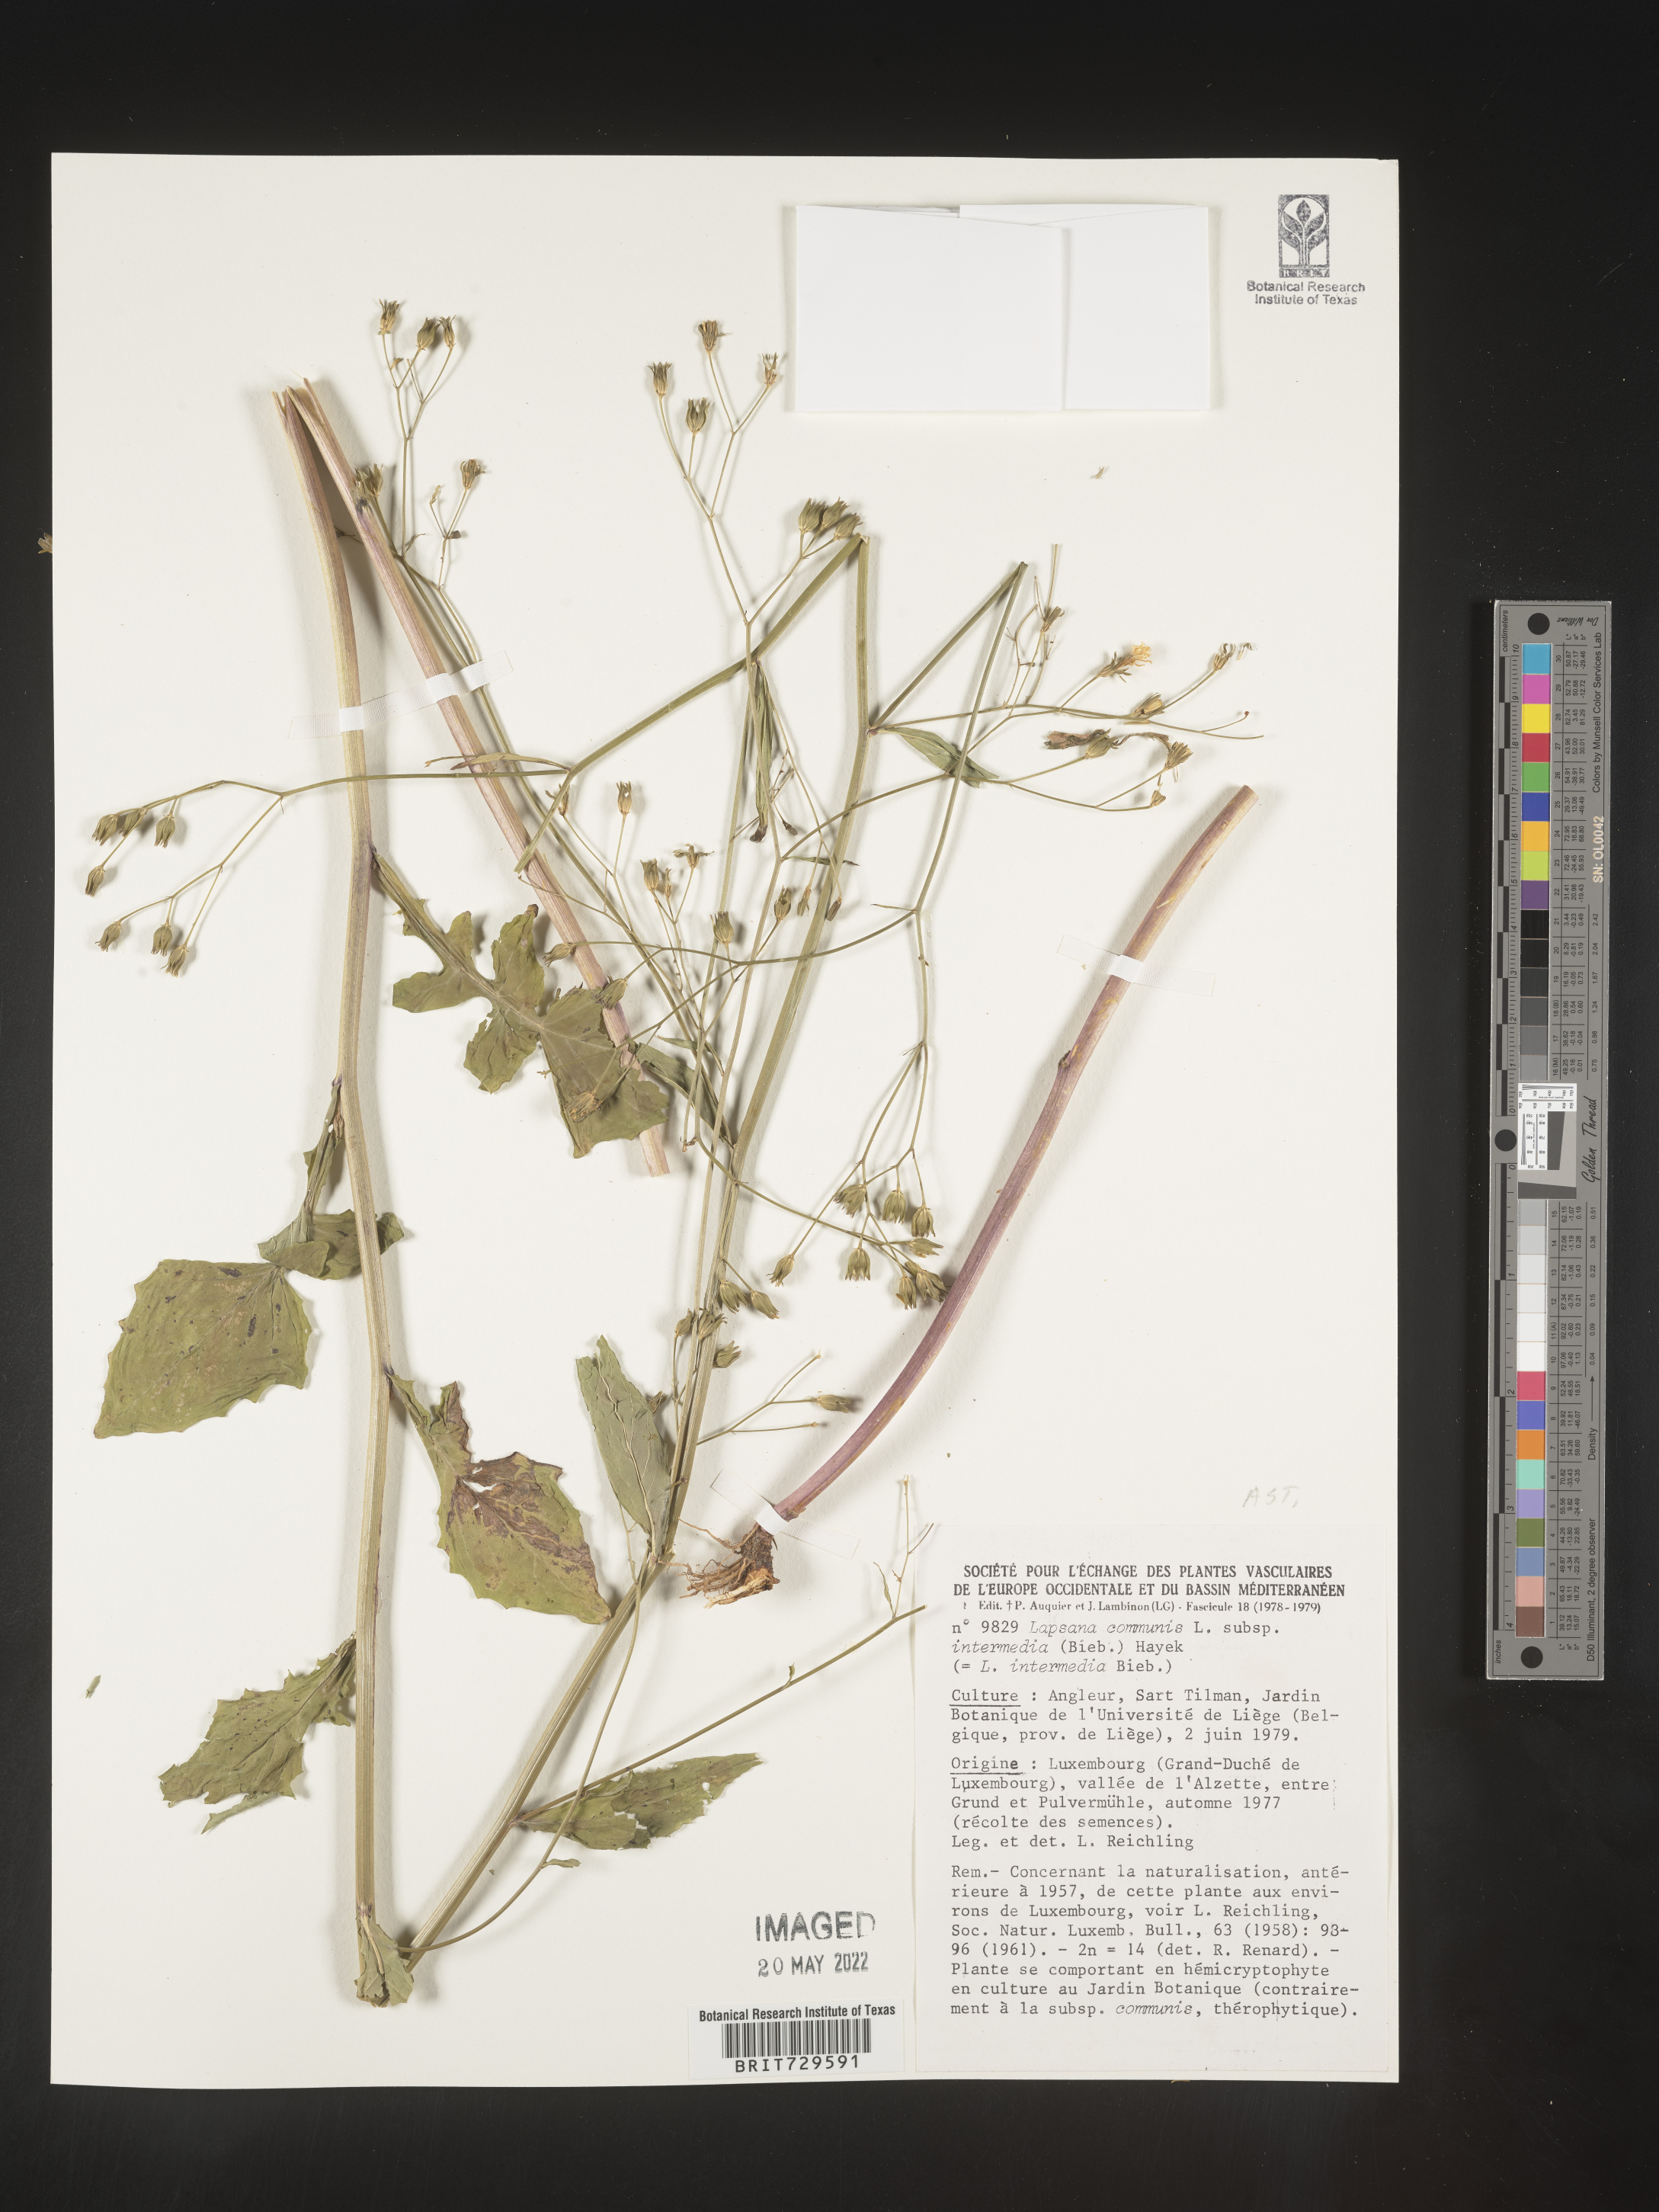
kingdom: Plantae
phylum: Tracheophyta
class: Magnoliopsida
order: Asterales
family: Asteraceae
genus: Lapsana
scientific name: Lapsana
